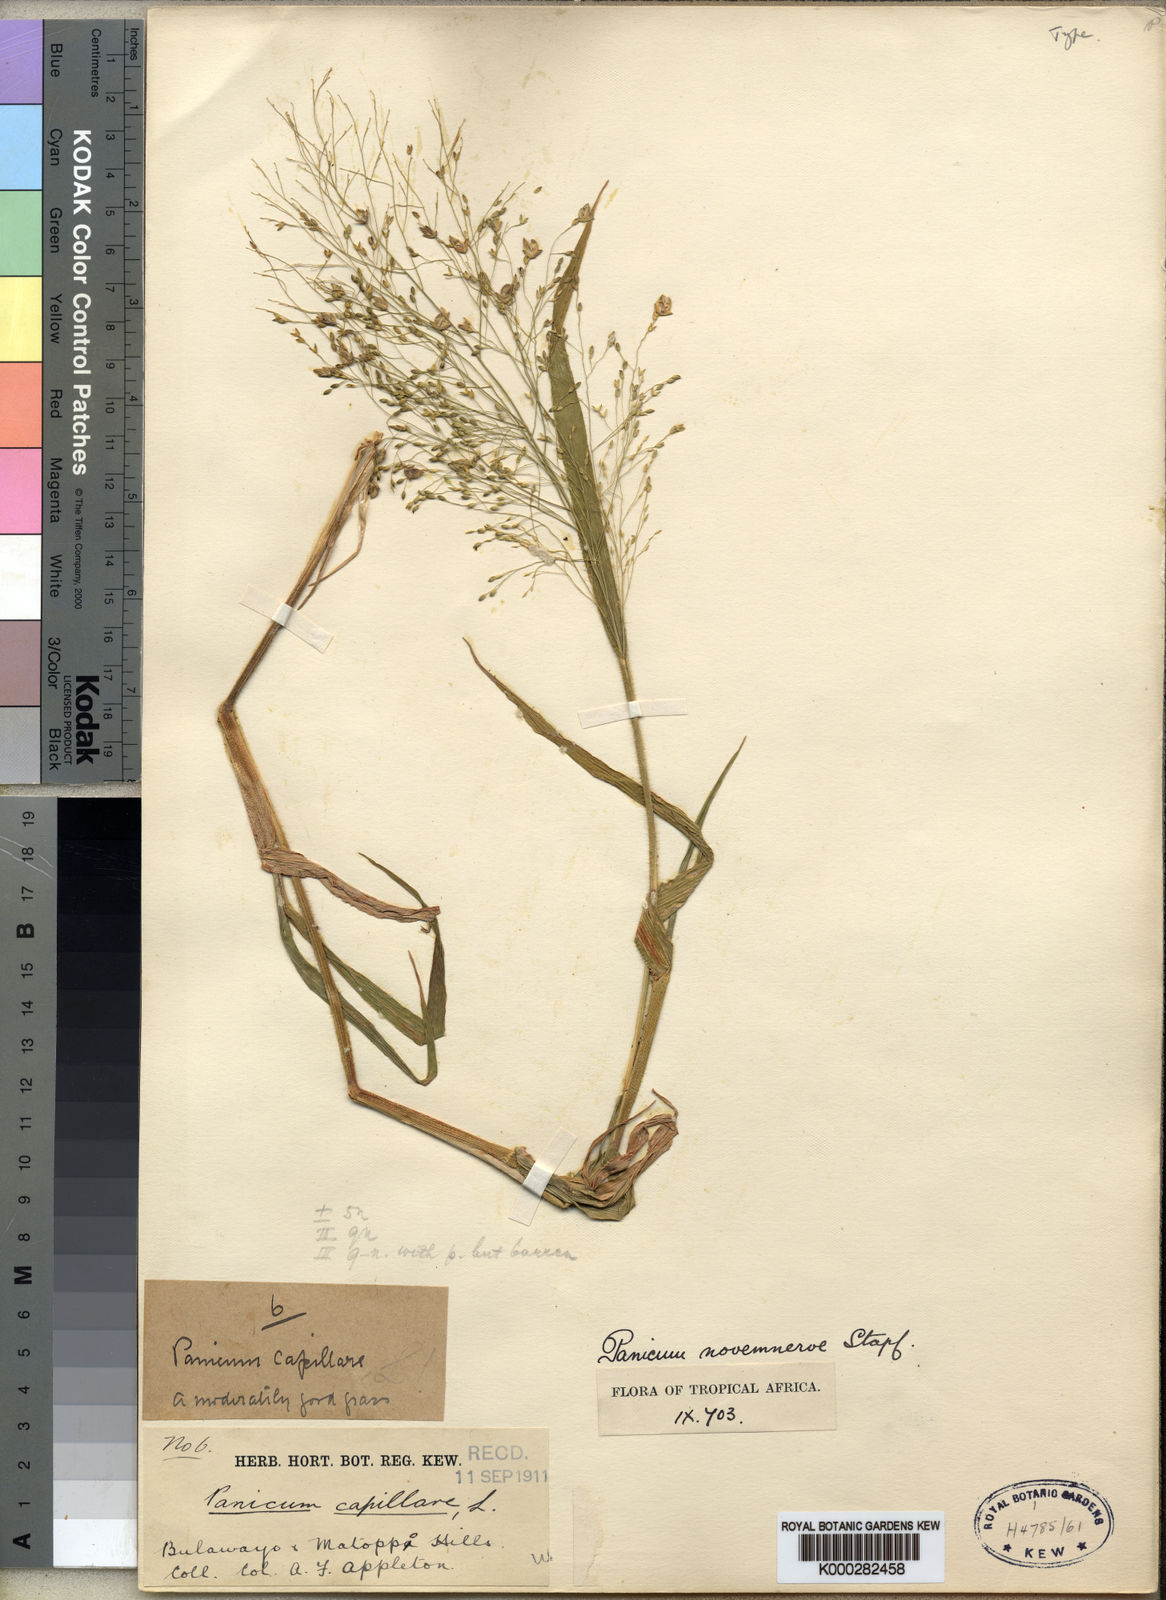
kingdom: Plantae
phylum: Tracheophyta
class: Liliopsida
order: Poales
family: Poaceae
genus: Panicum
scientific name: Panicum novemnerve
